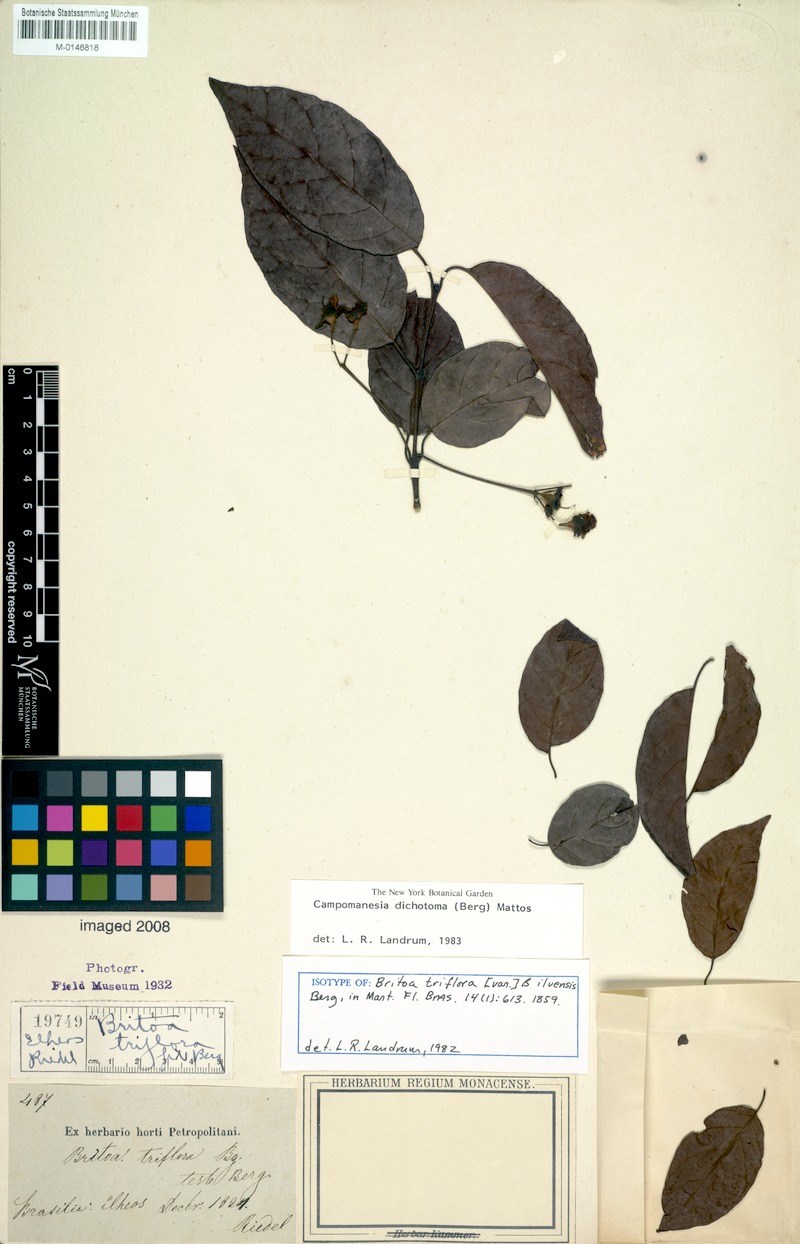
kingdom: Plantae
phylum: Tracheophyta
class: Magnoliopsida
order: Myrtales
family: Myrtaceae
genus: Campomanesia
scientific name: Campomanesia dichotoma
